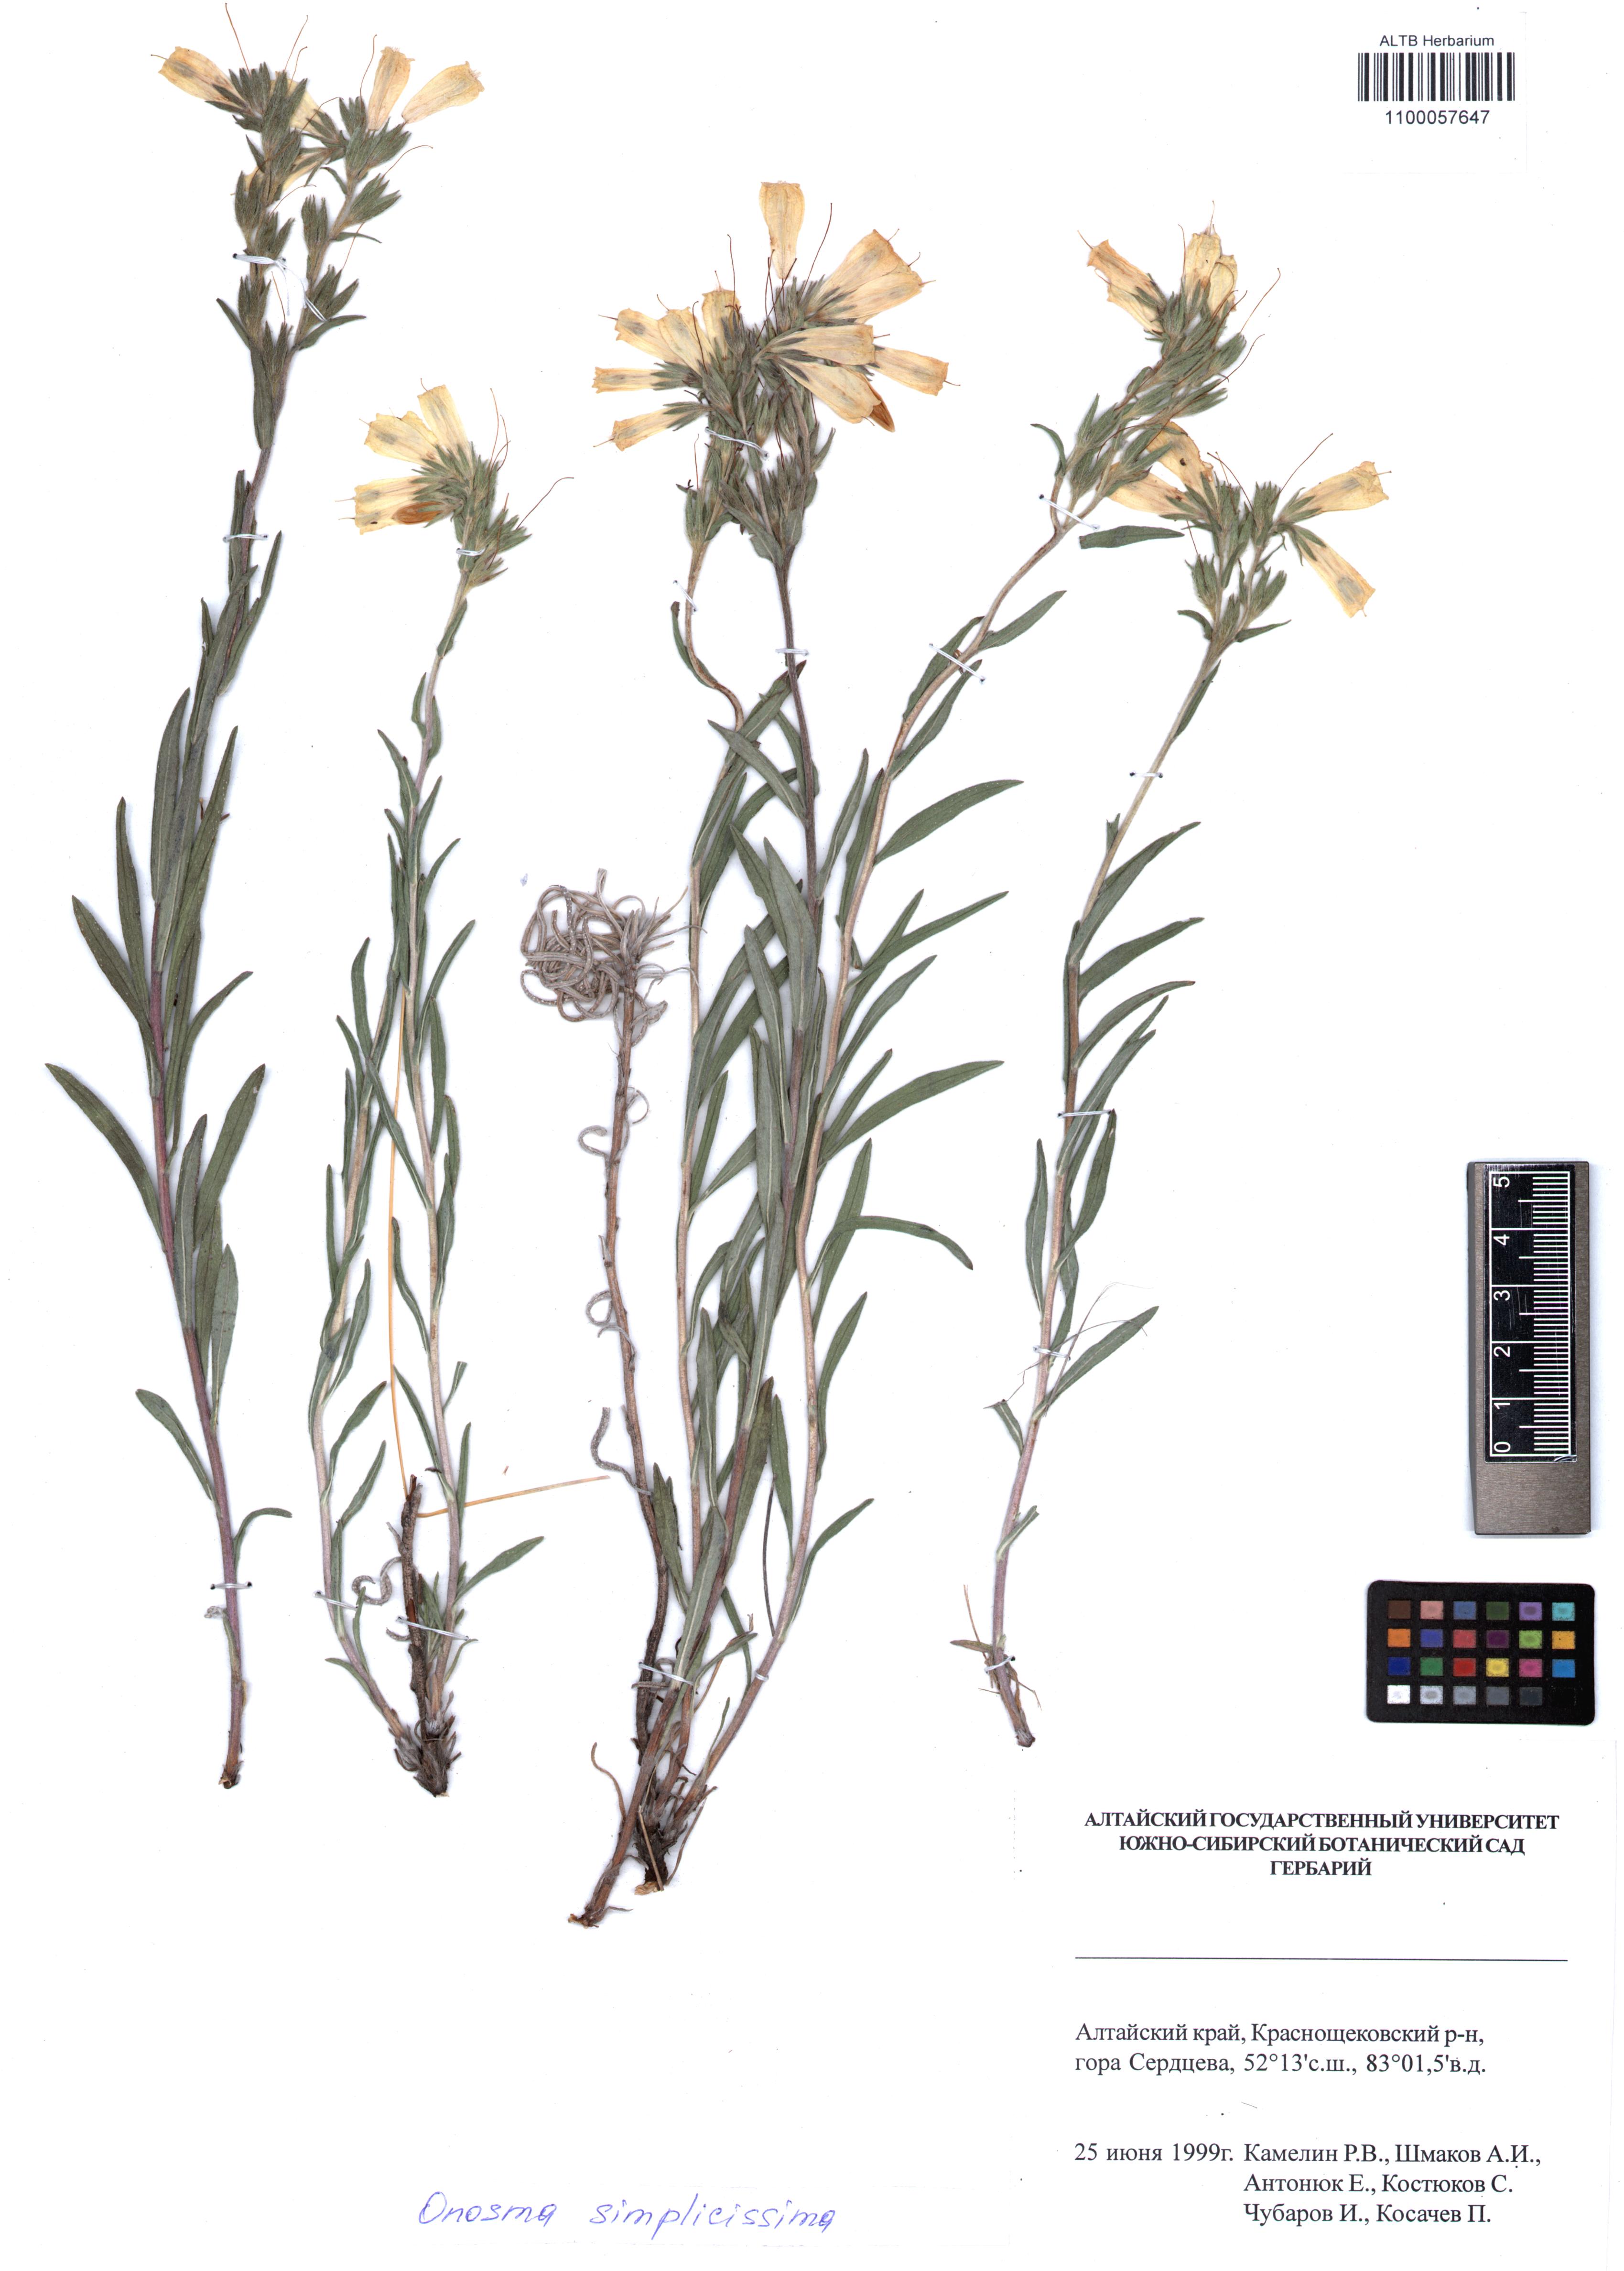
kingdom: Plantae
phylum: Tracheophyta
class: Magnoliopsida
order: Boraginales
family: Boraginaceae
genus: Onosma
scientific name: Onosma simplicissima
